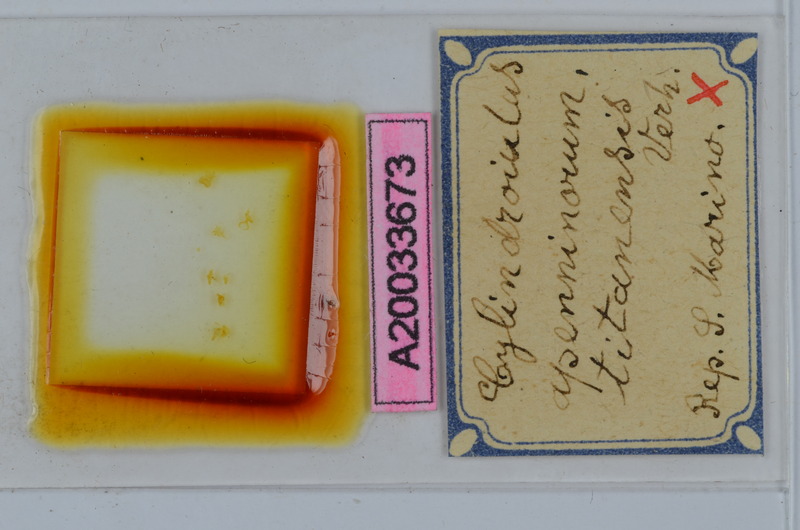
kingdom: Animalia
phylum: Arthropoda
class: Diplopoda
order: Julida
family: Julidae
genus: Cylindroiulus
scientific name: Cylindroiulus apenninorum
